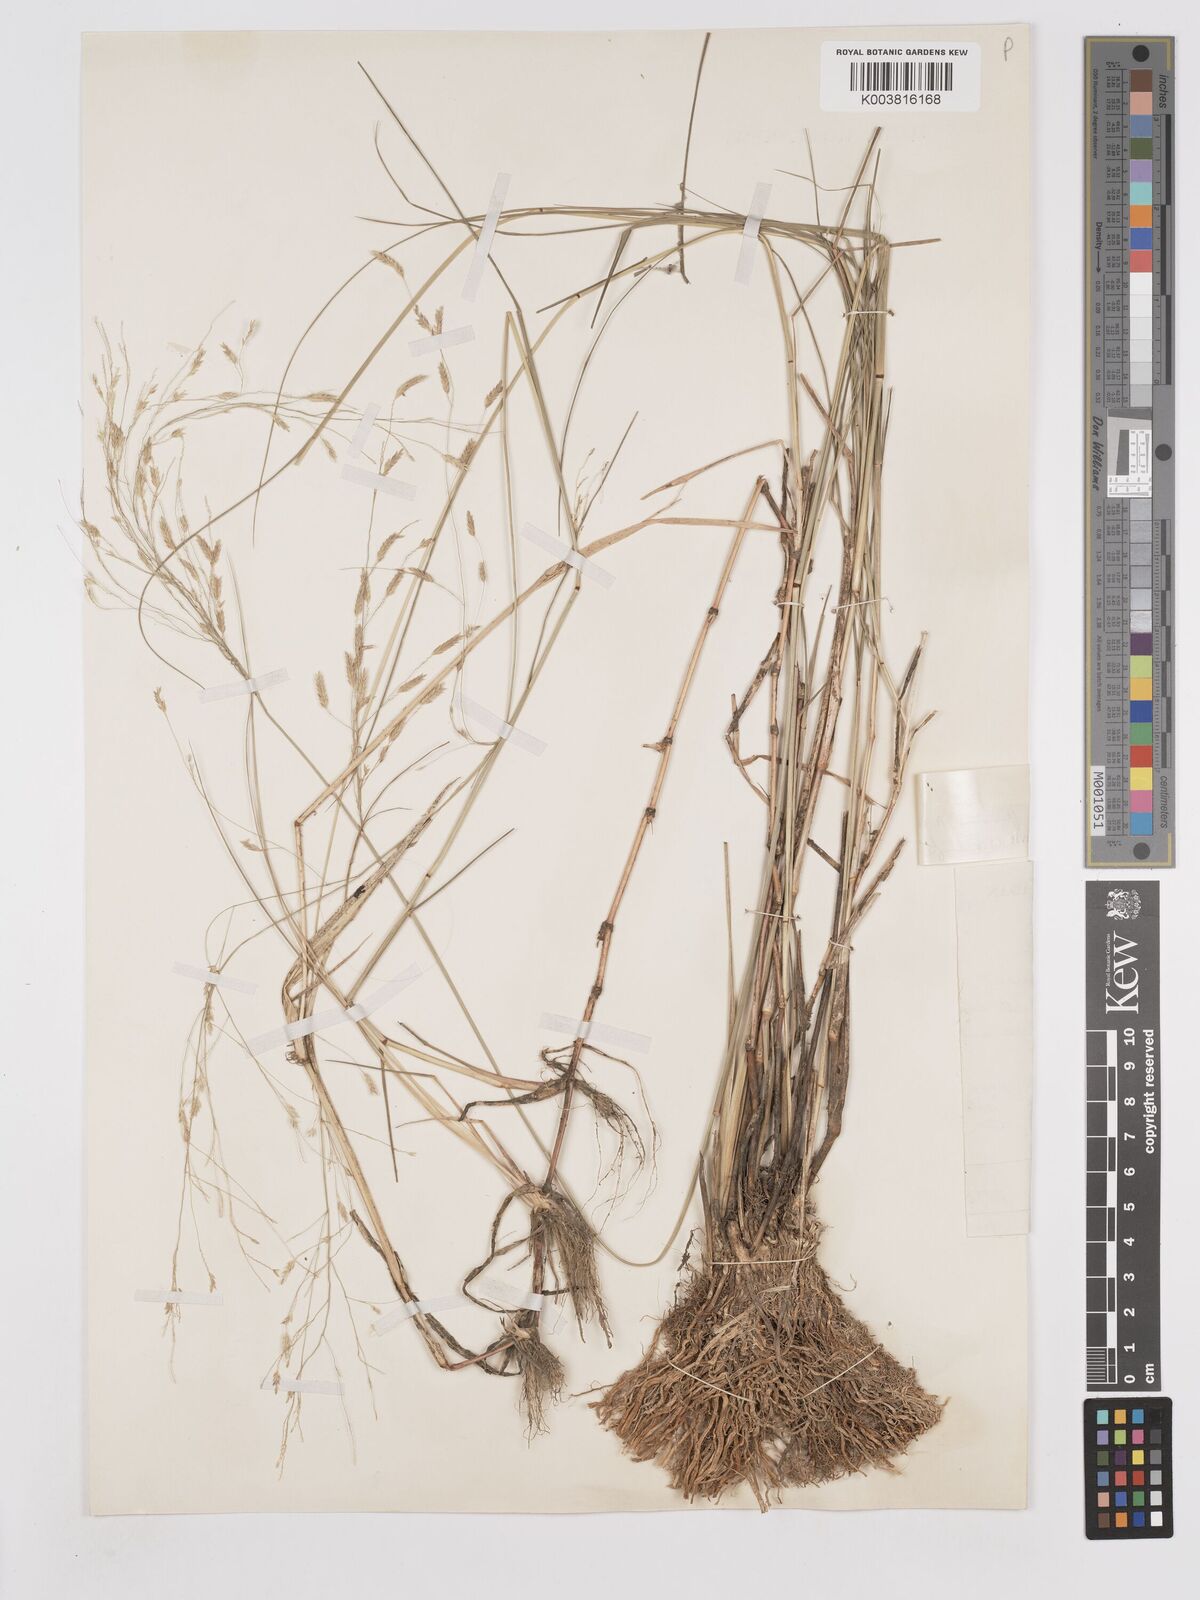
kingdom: Plantae
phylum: Tracheophyta
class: Liliopsida
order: Poales
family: Poaceae
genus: Eragrostis
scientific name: Eragrostis barteri
